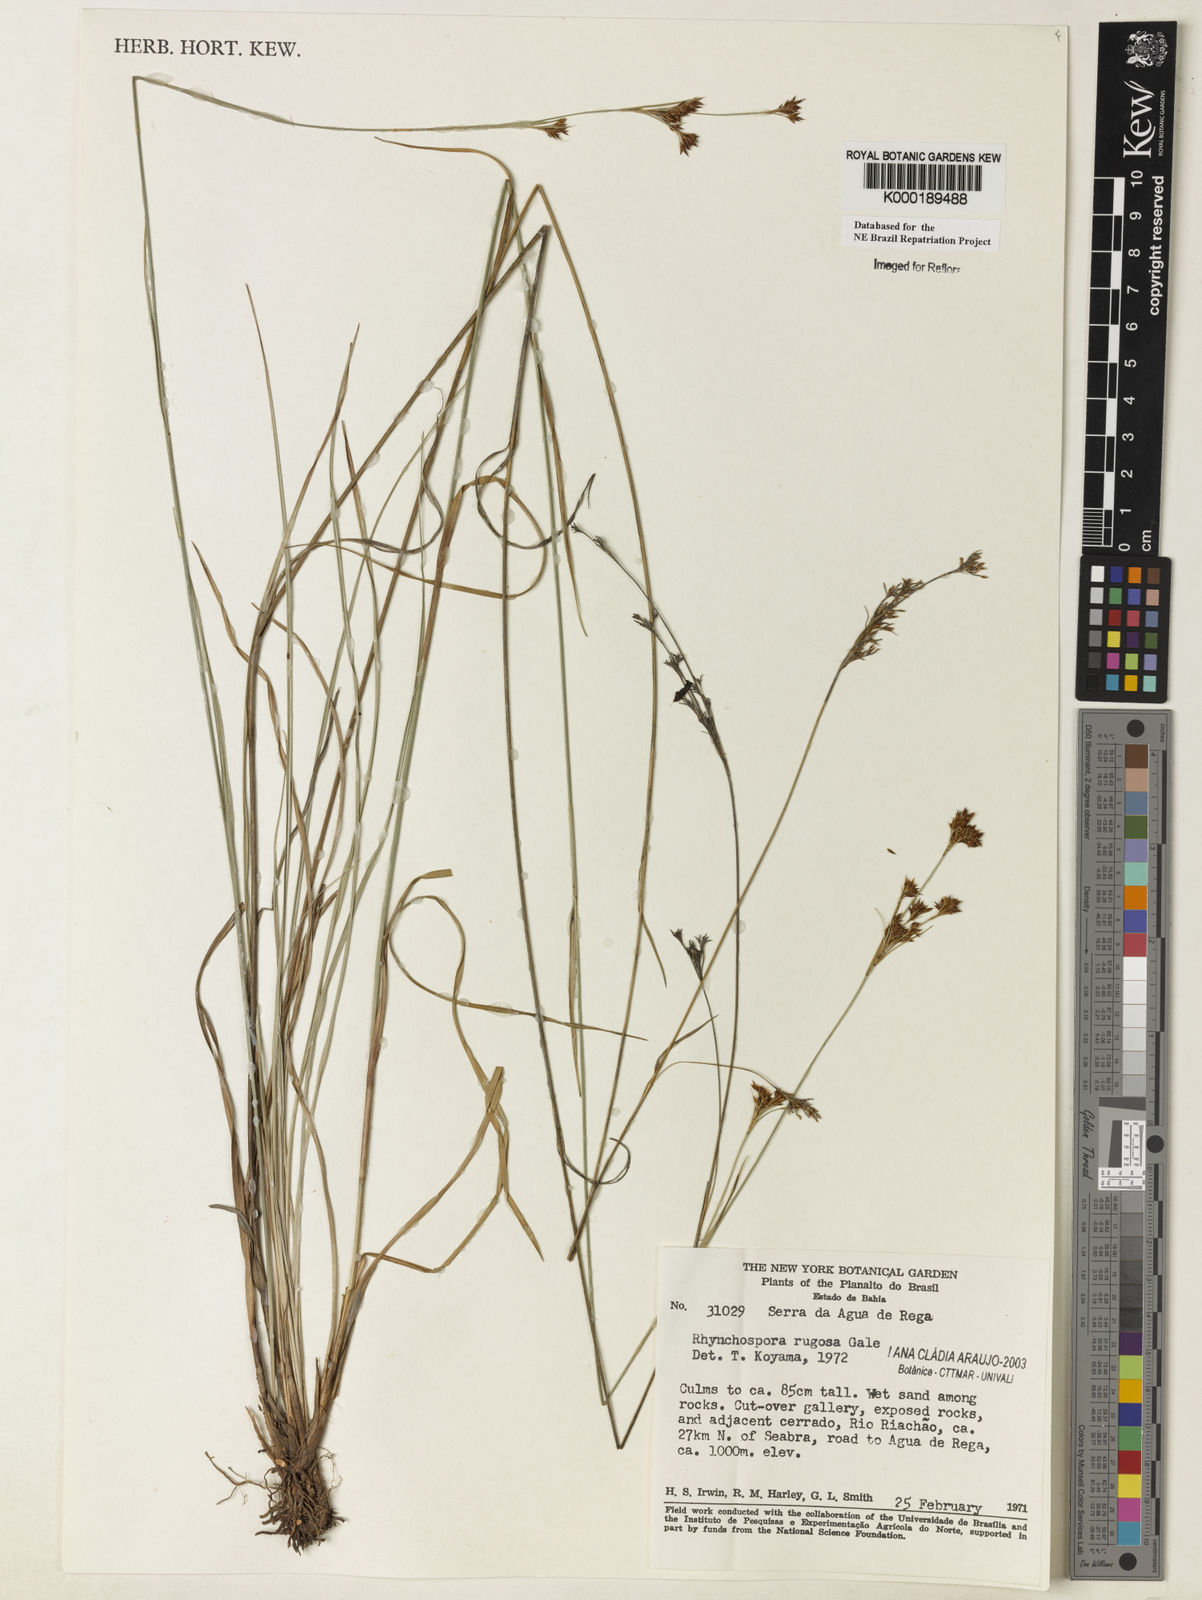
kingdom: Plantae
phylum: Tracheophyta
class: Liliopsida
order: Poales
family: Cyperaceae
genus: Rhynchospora
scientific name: Rhynchospora rugosa
